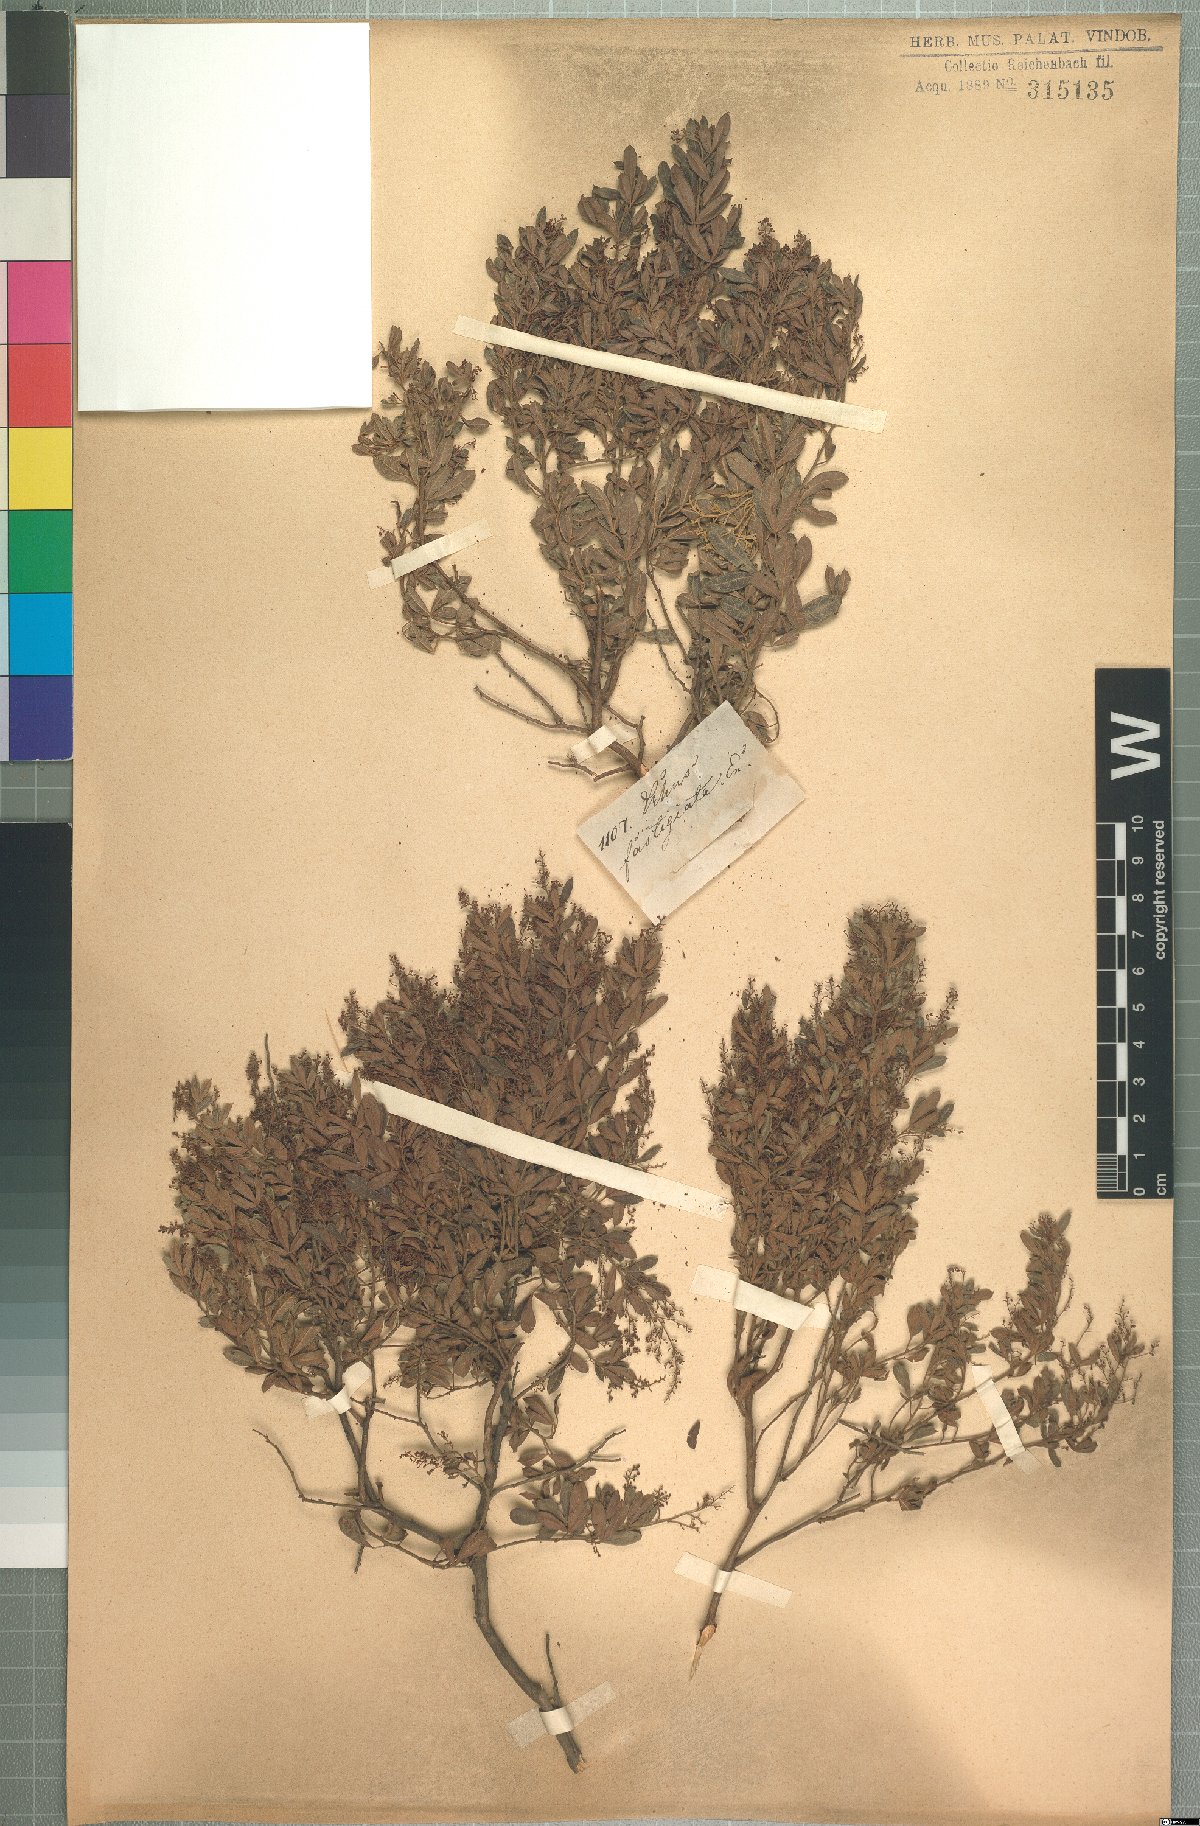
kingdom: Plantae
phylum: Tracheophyta
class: Magnoliopsida
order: Sapindales
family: Anacardiaceae
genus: Searsia
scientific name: Searsia fastigiata
